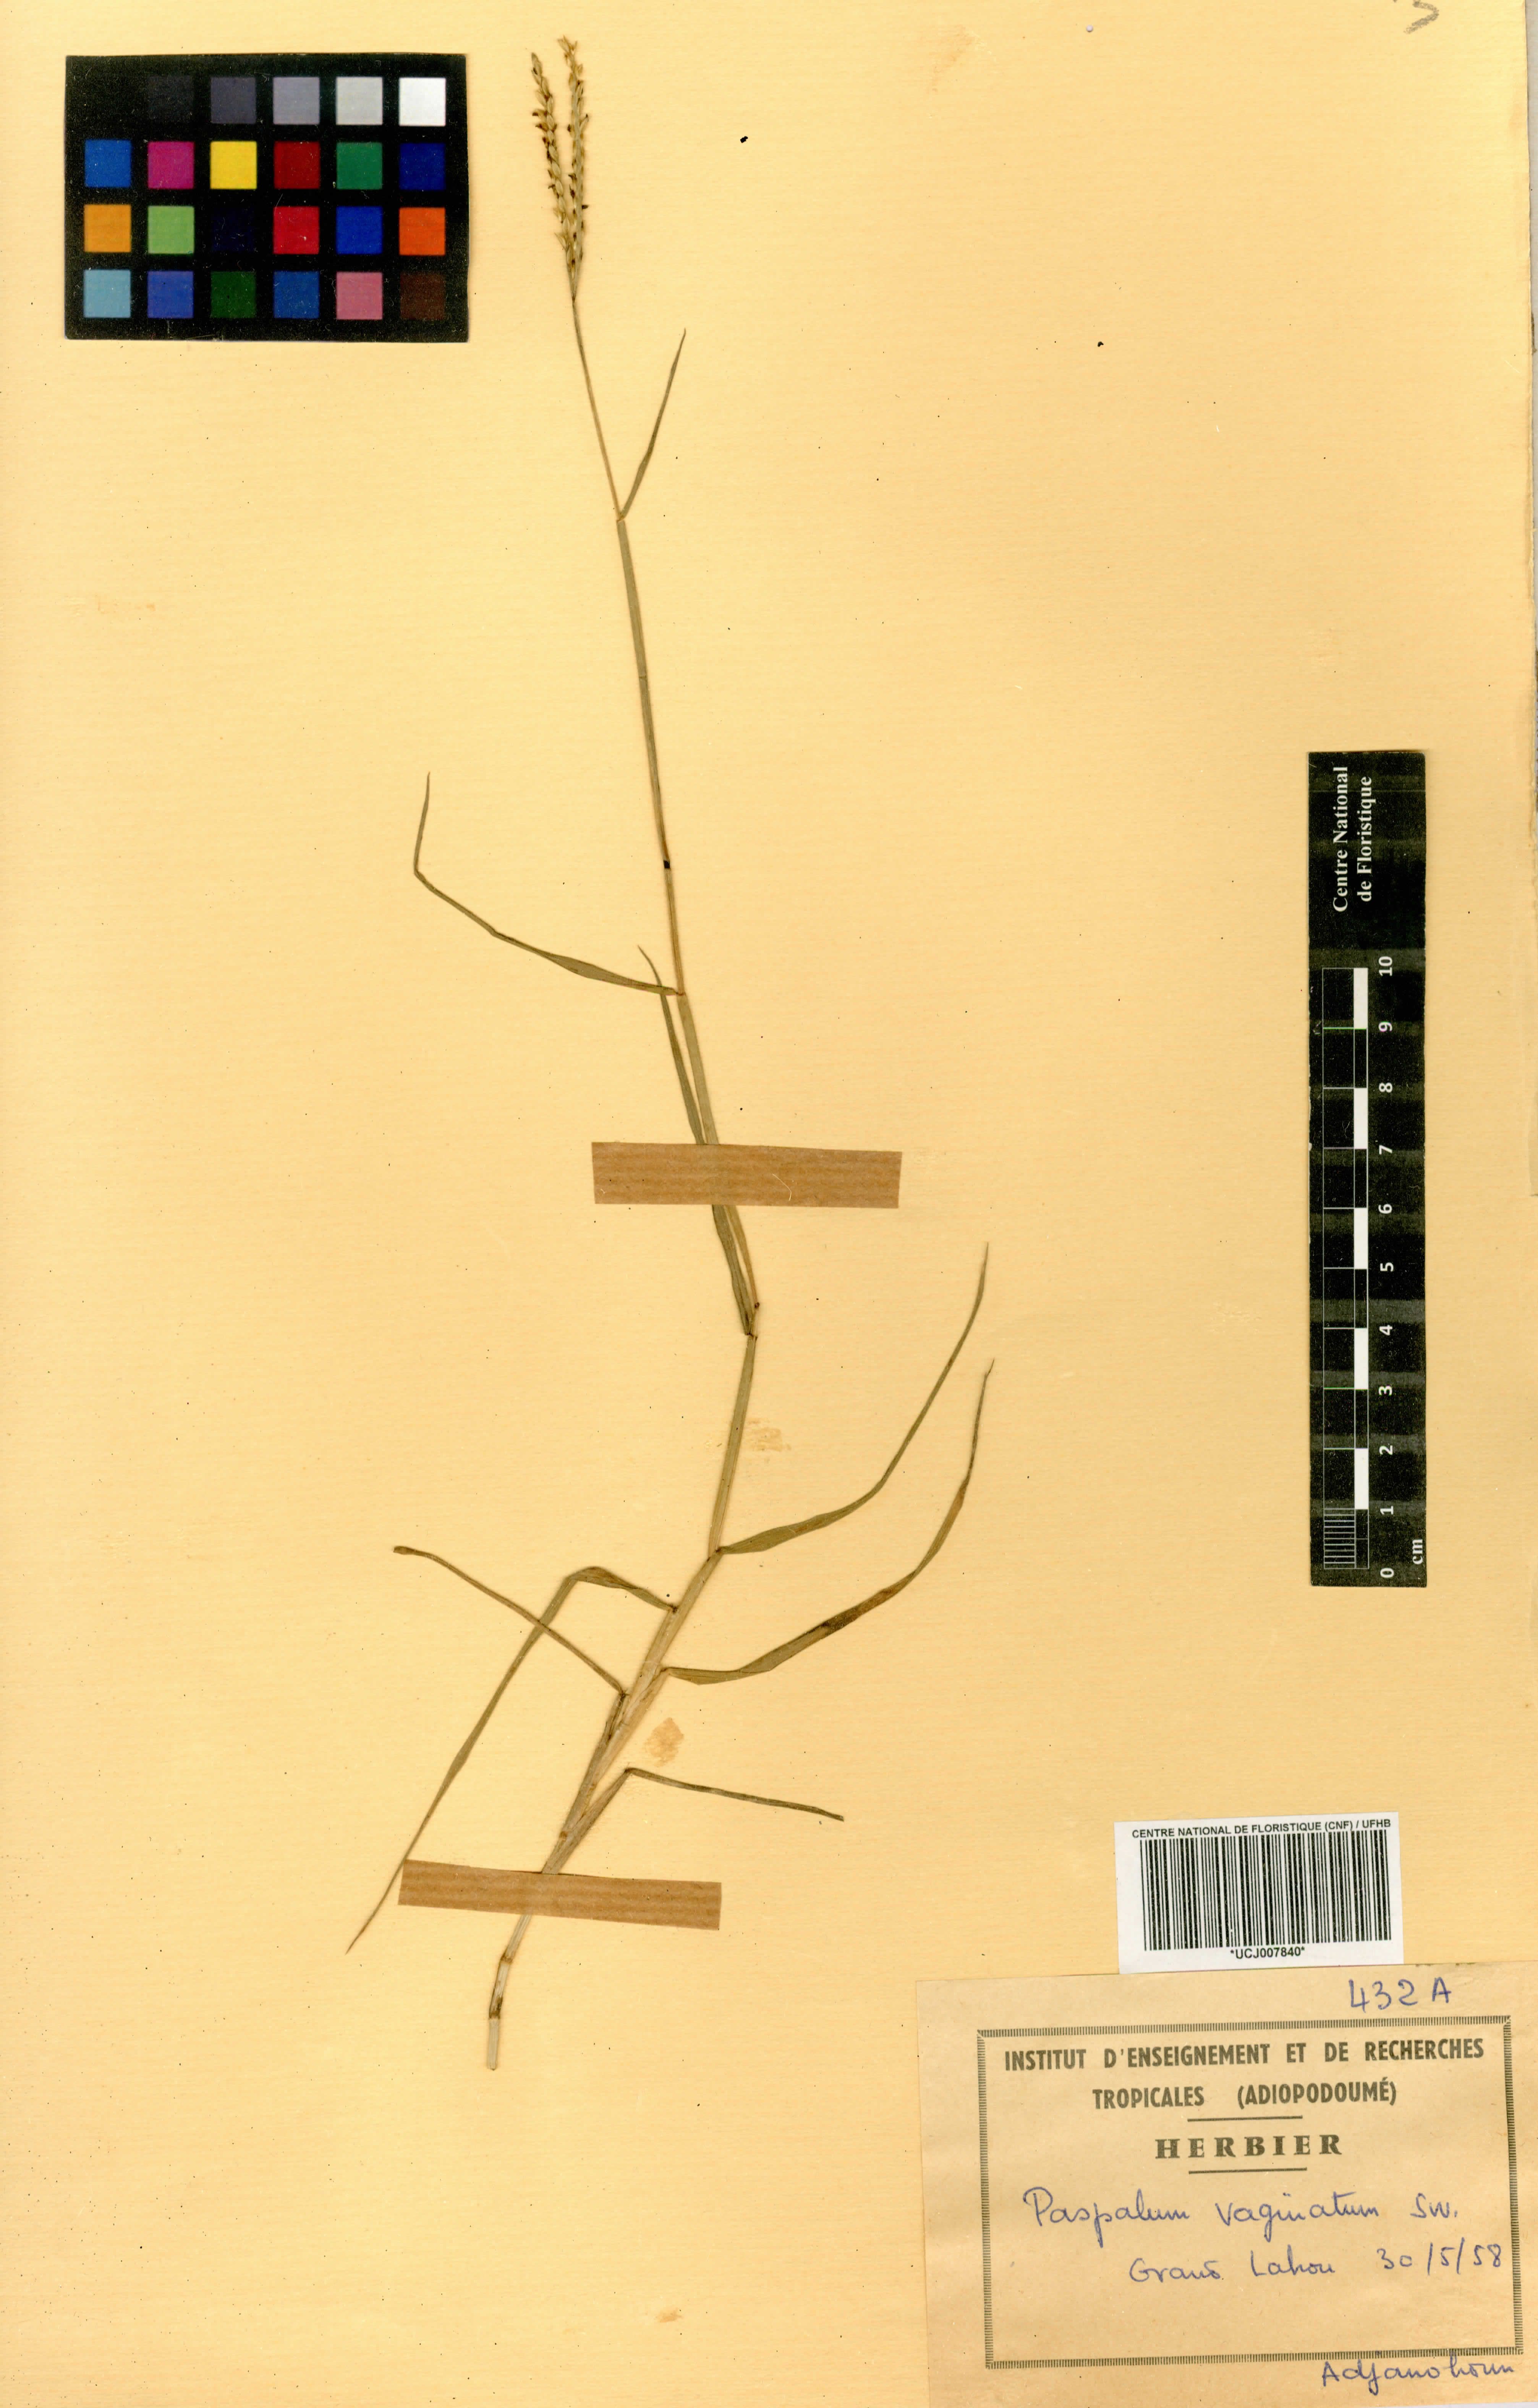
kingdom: Plantae
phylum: Tracheophyta
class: Liliopsida
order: Poales
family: Poaceae
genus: Paspalum
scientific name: Paspalum vaginatum
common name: Seashore paspalum
